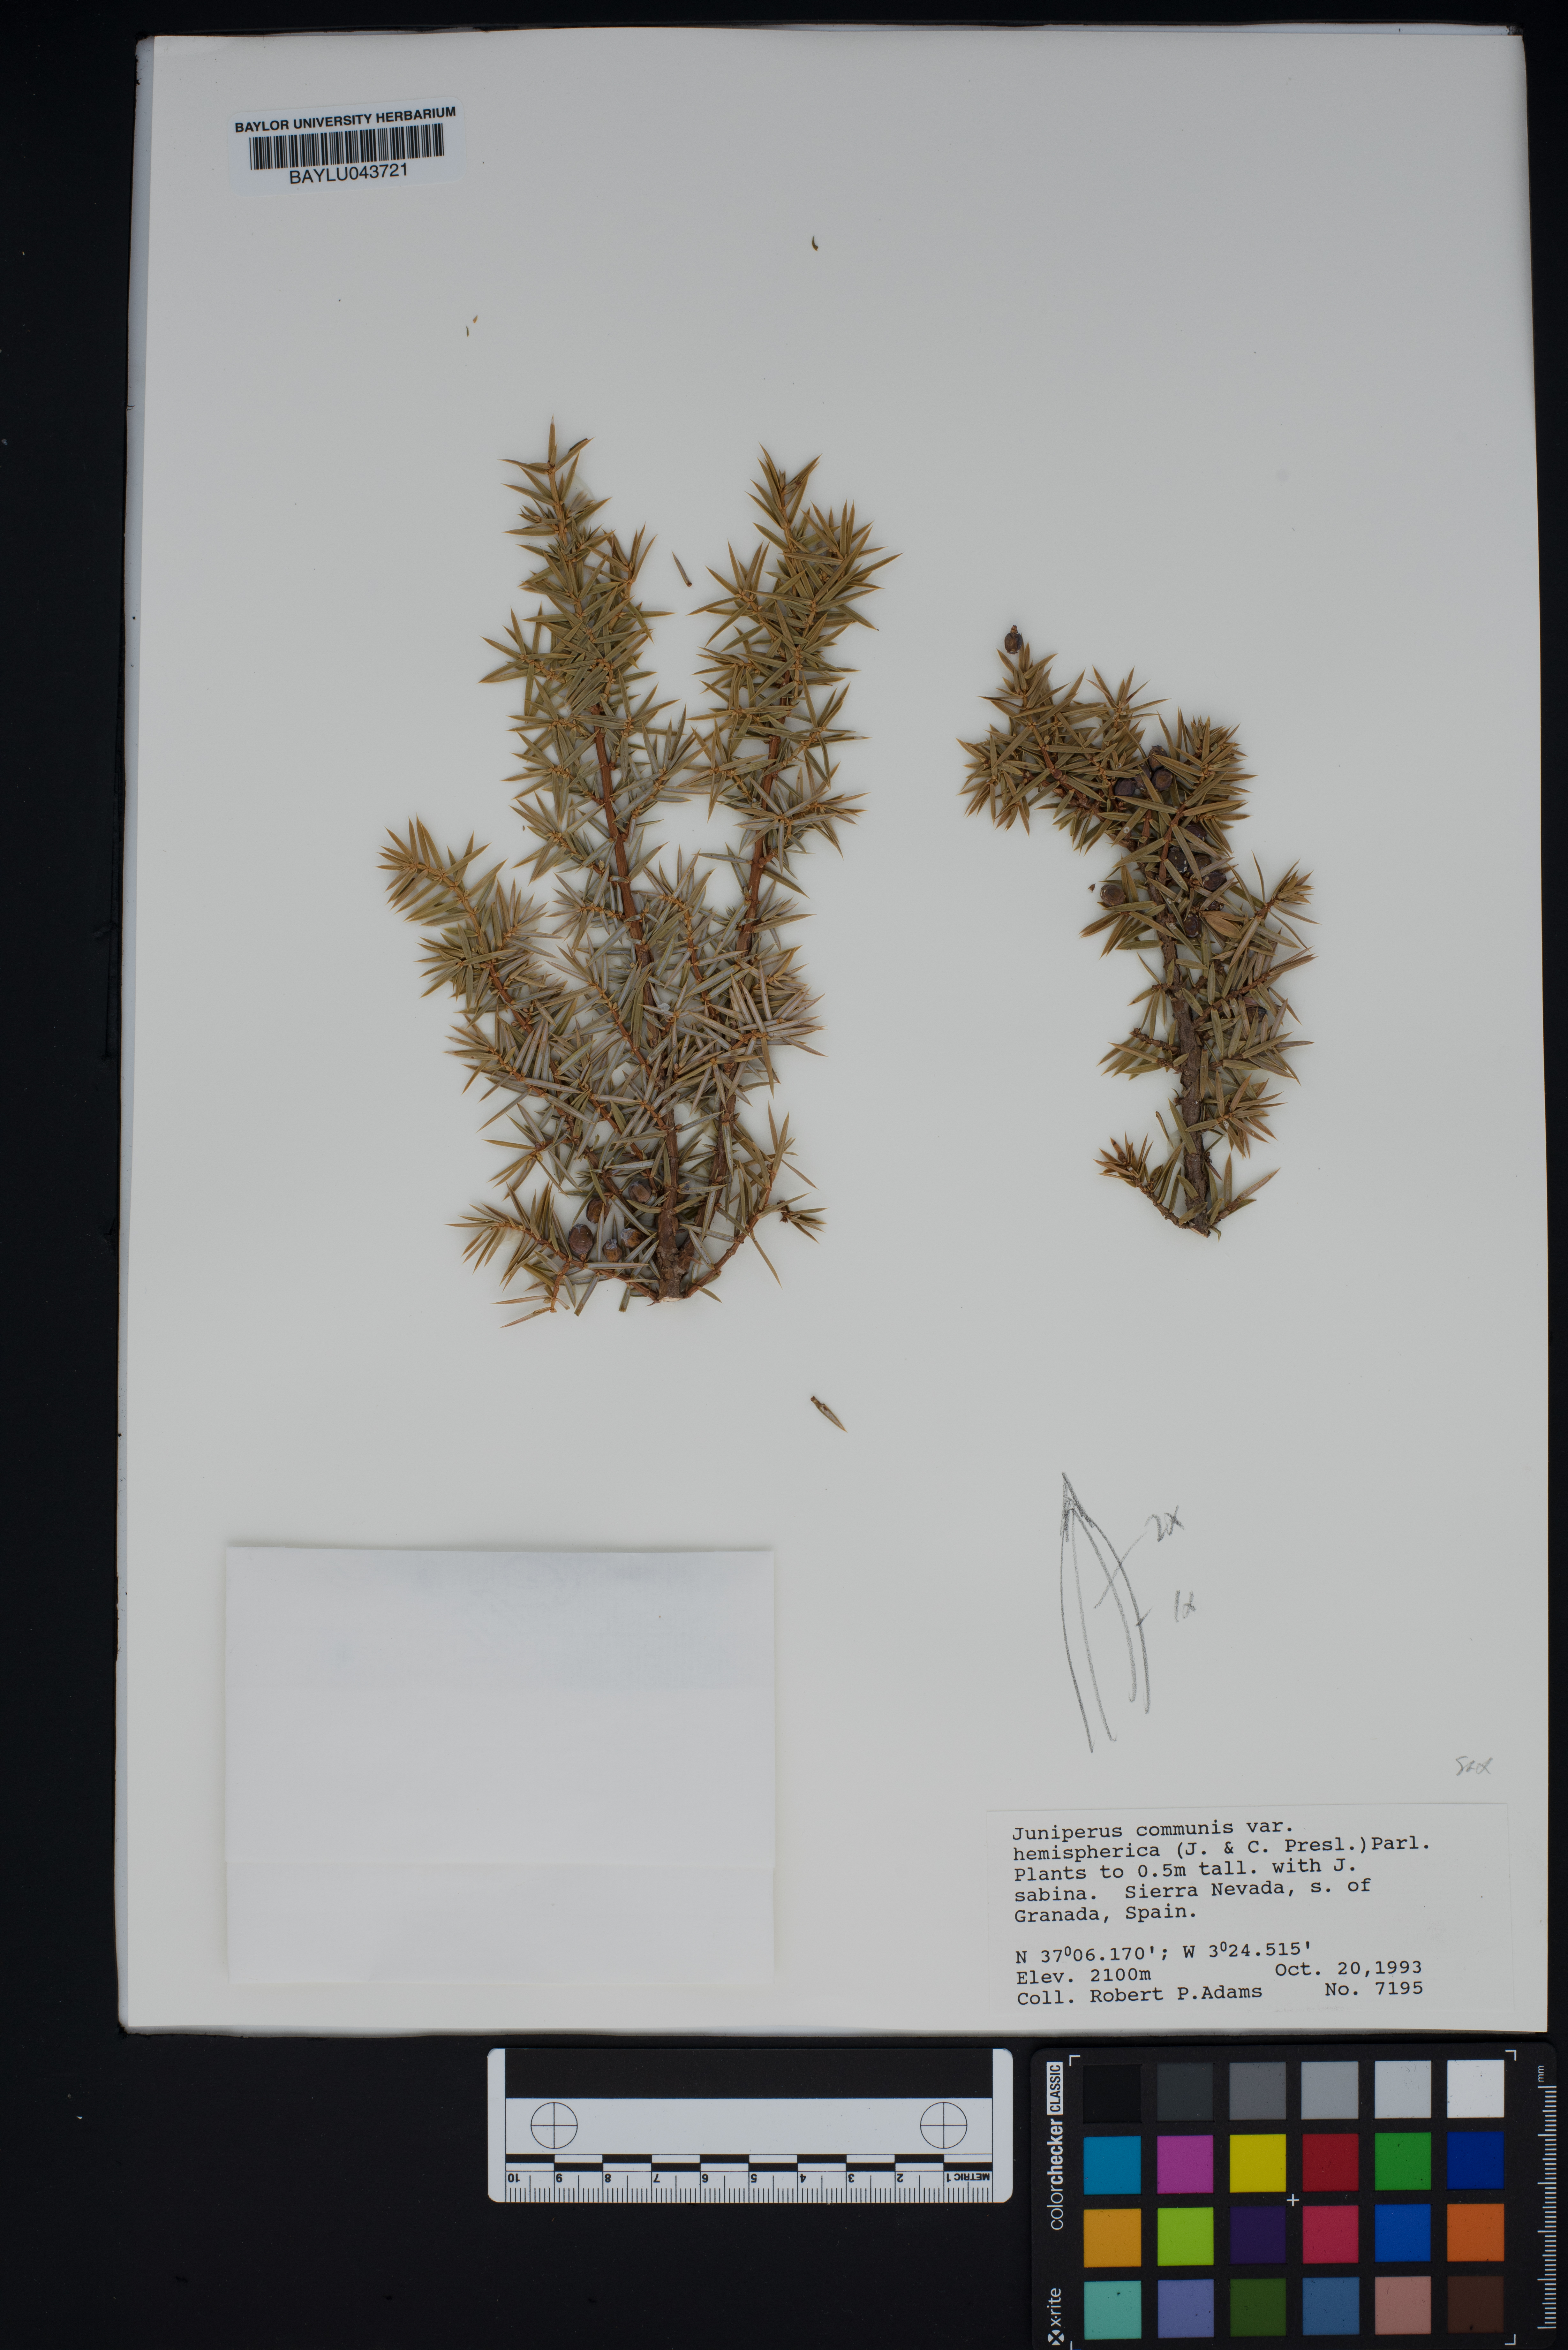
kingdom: Plantae
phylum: Tracheophyta
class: Pinopsida
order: Pinales
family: Cupressaceae
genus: Juniperus
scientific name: Juniperus communis
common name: Common juniper
